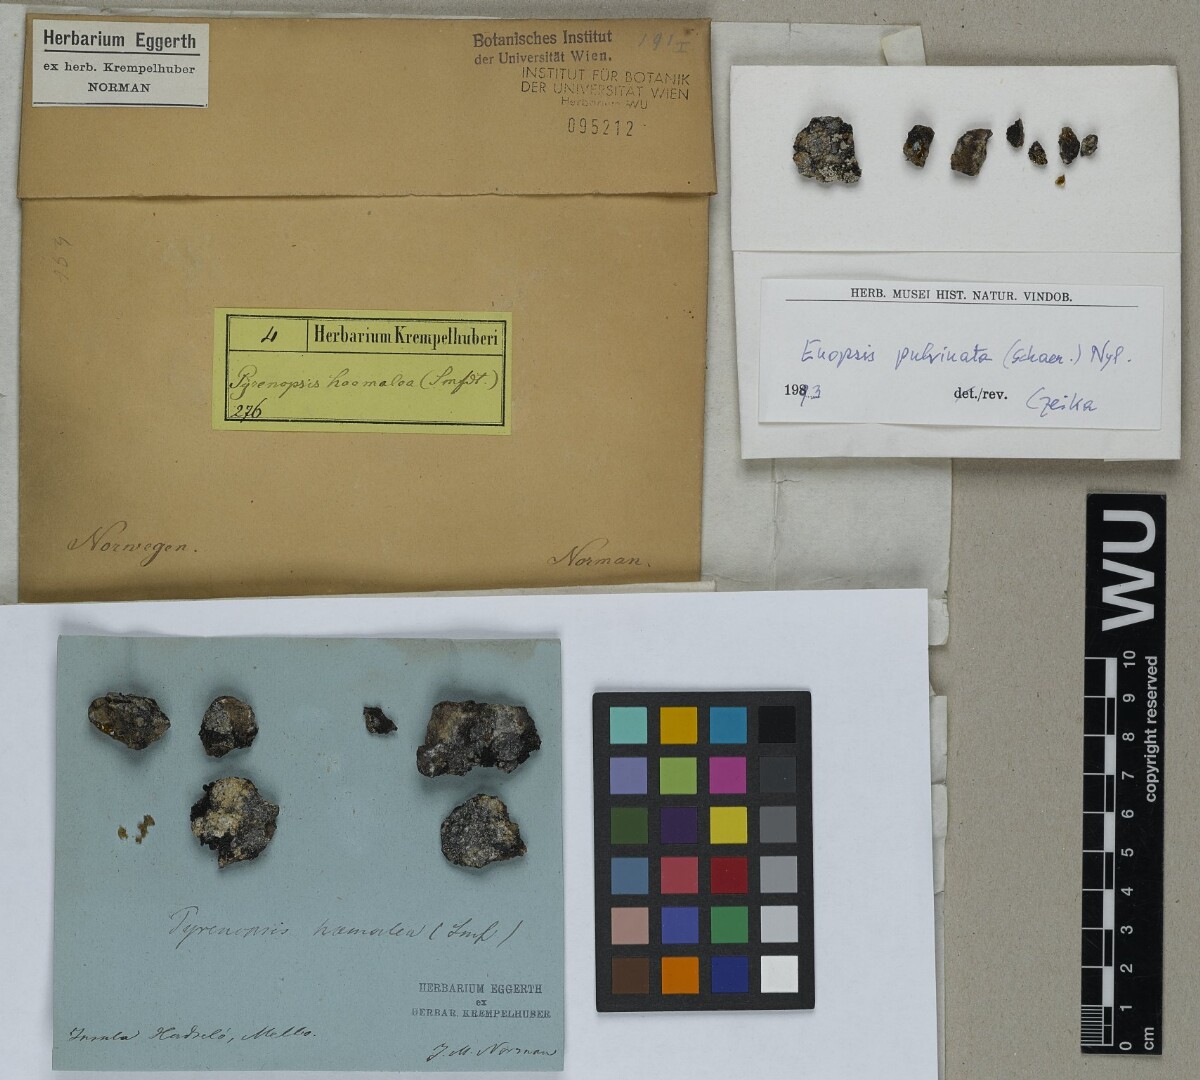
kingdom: Fungi
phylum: Ascomycota
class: Lichinomycetes
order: Lichinales
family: Lichinaceae
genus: Euopsis
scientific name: Euopsis pulvinata
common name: Greater rockbud lichen
